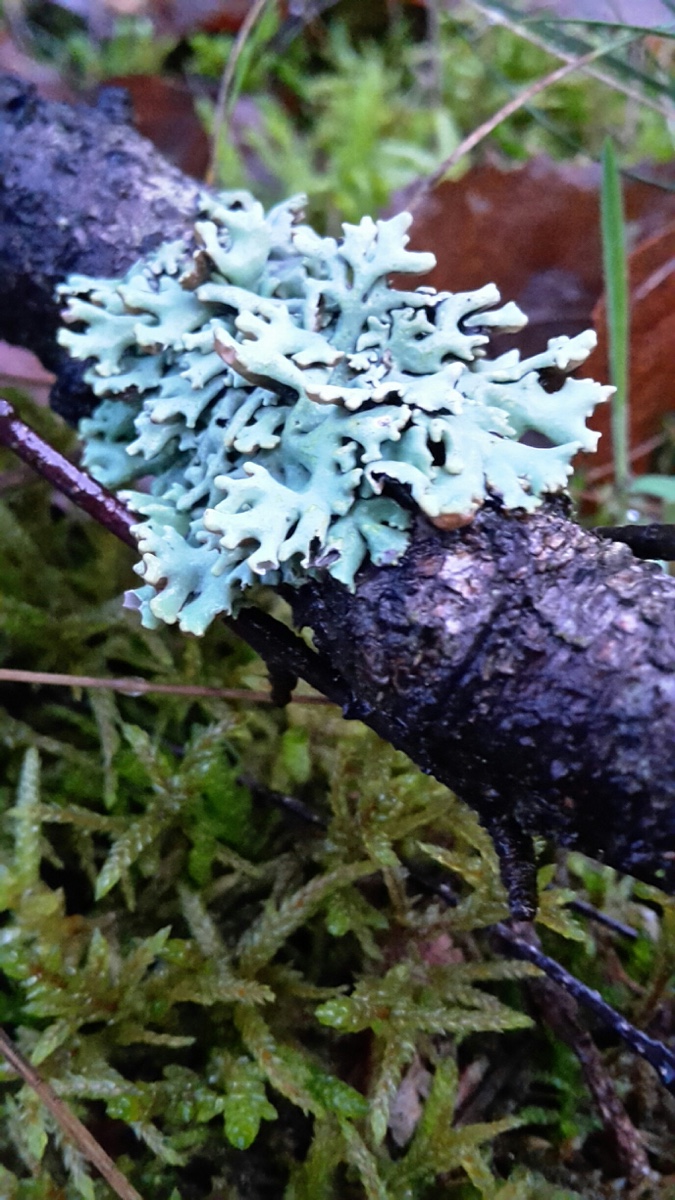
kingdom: Fungi
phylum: Ascomycota
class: Lecanoromycetes
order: Lecanorales
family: Parmeliaceae
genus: Hypogymnia
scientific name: Hypogymnia physodes
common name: almindelig kvistlav
